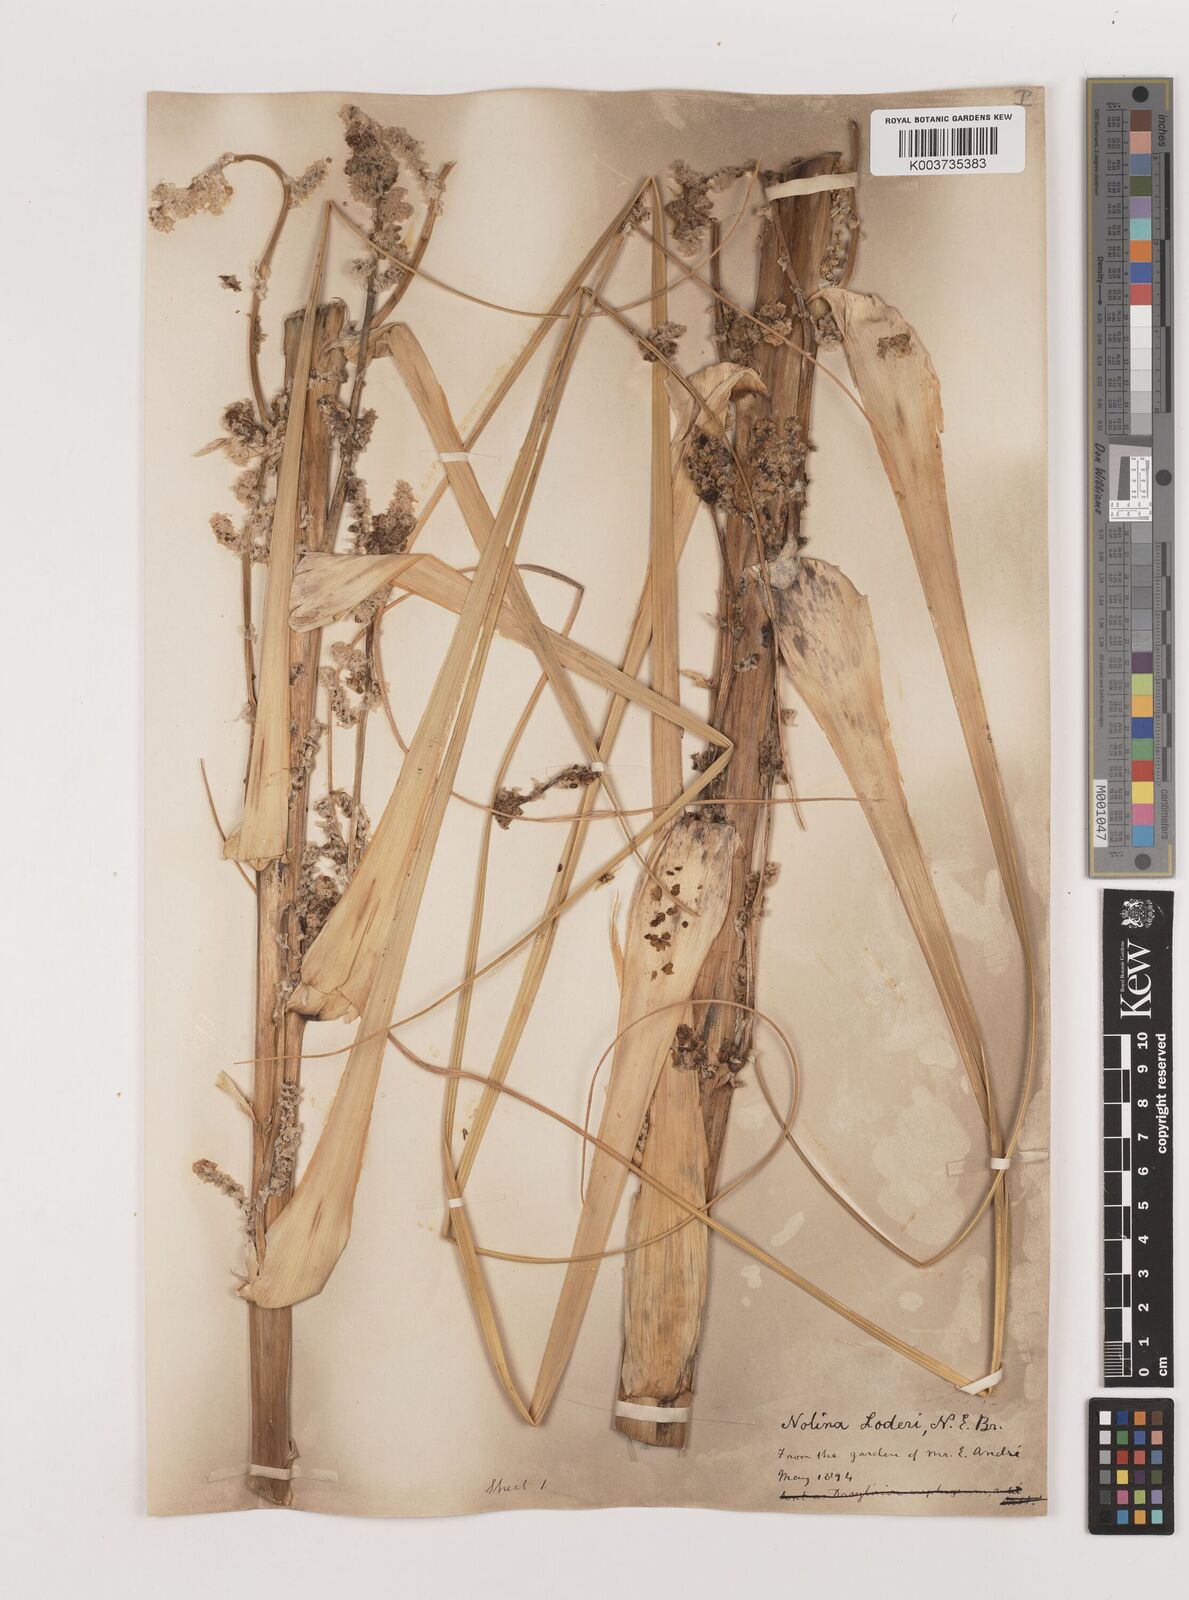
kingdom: Plantae
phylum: Tracheophyta
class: Liliopsida
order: Asparagales
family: Asparagaceae
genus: Nolina
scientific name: Nolina loderi
